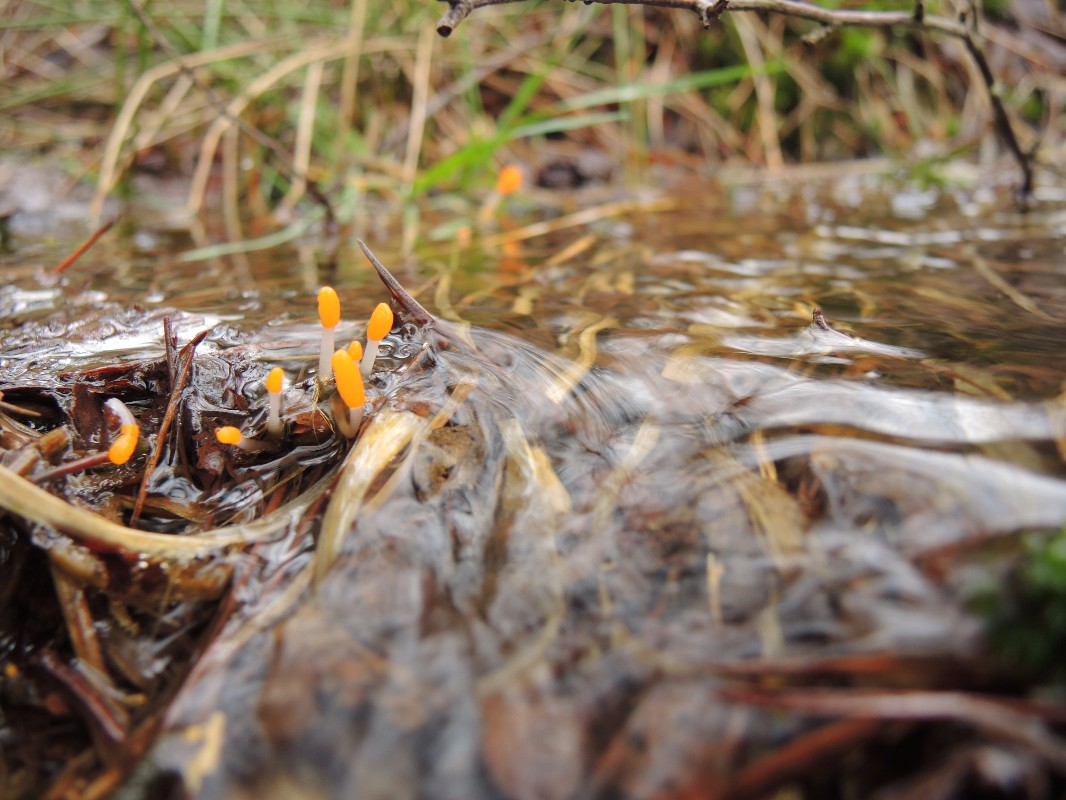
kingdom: Fungi
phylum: Ascomycota
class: Leotiomycetes
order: Helotiales
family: Cenangiaceae
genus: Mitrula
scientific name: Mitrula paludosa
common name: gul nøkketunge
